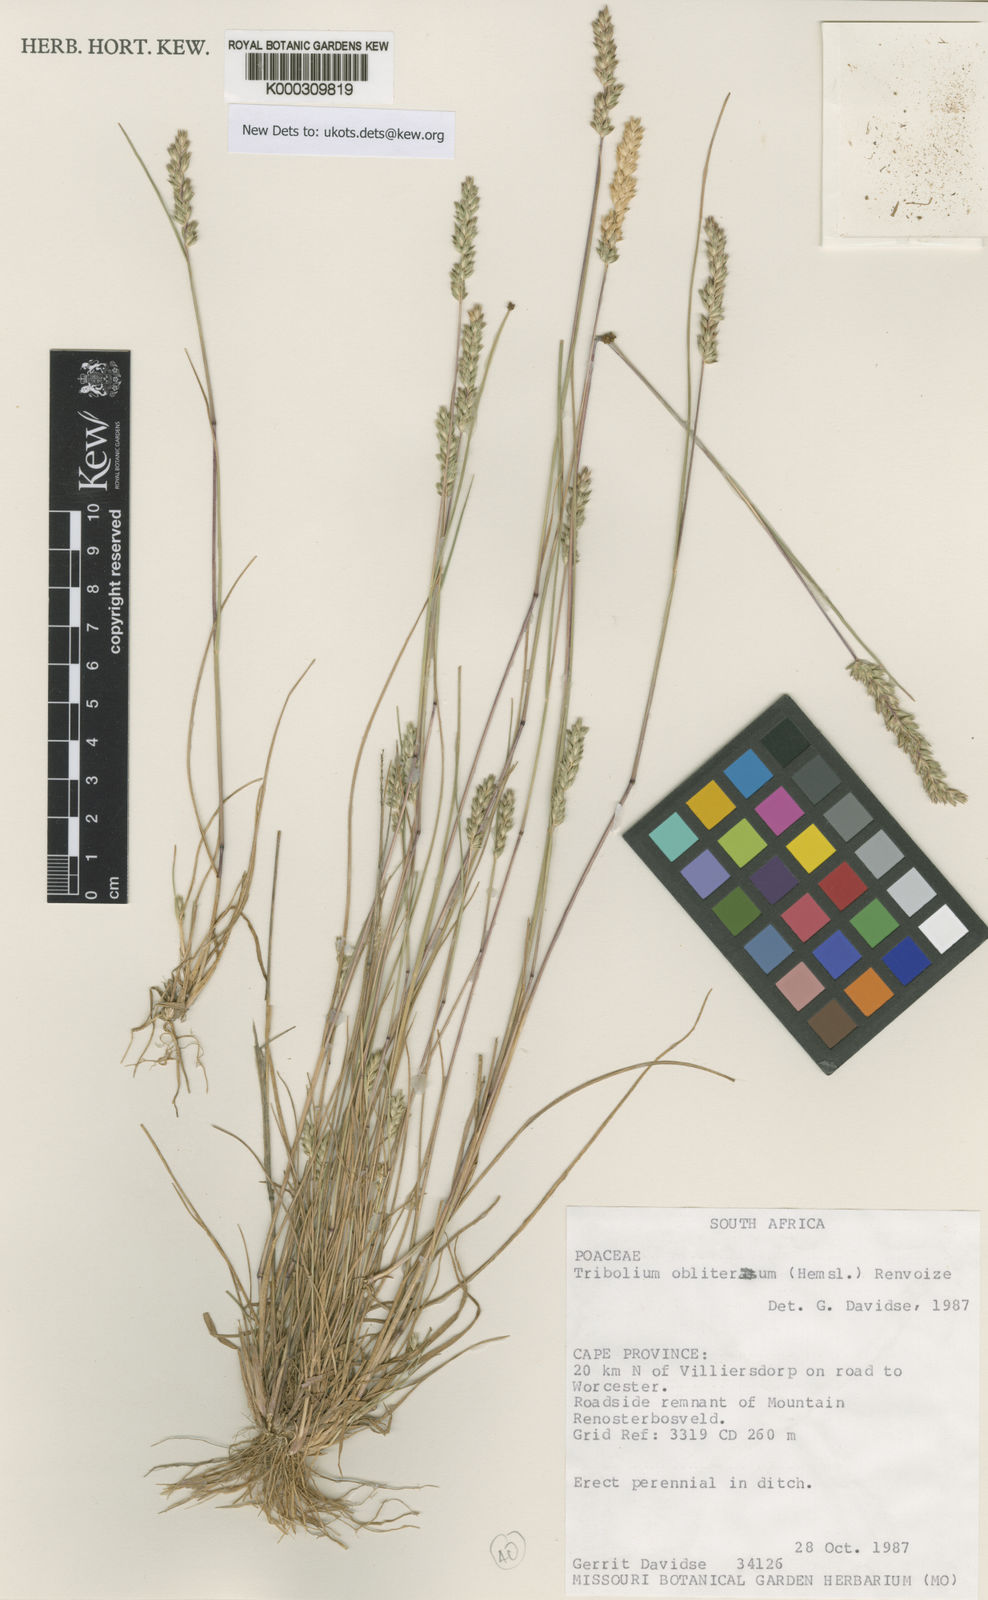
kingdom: Plantae
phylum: Tracheophyta
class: Liliopsida
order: Poales
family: Poaceae
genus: Tribolium
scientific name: Tribolium obliterum
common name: Capetown grass
